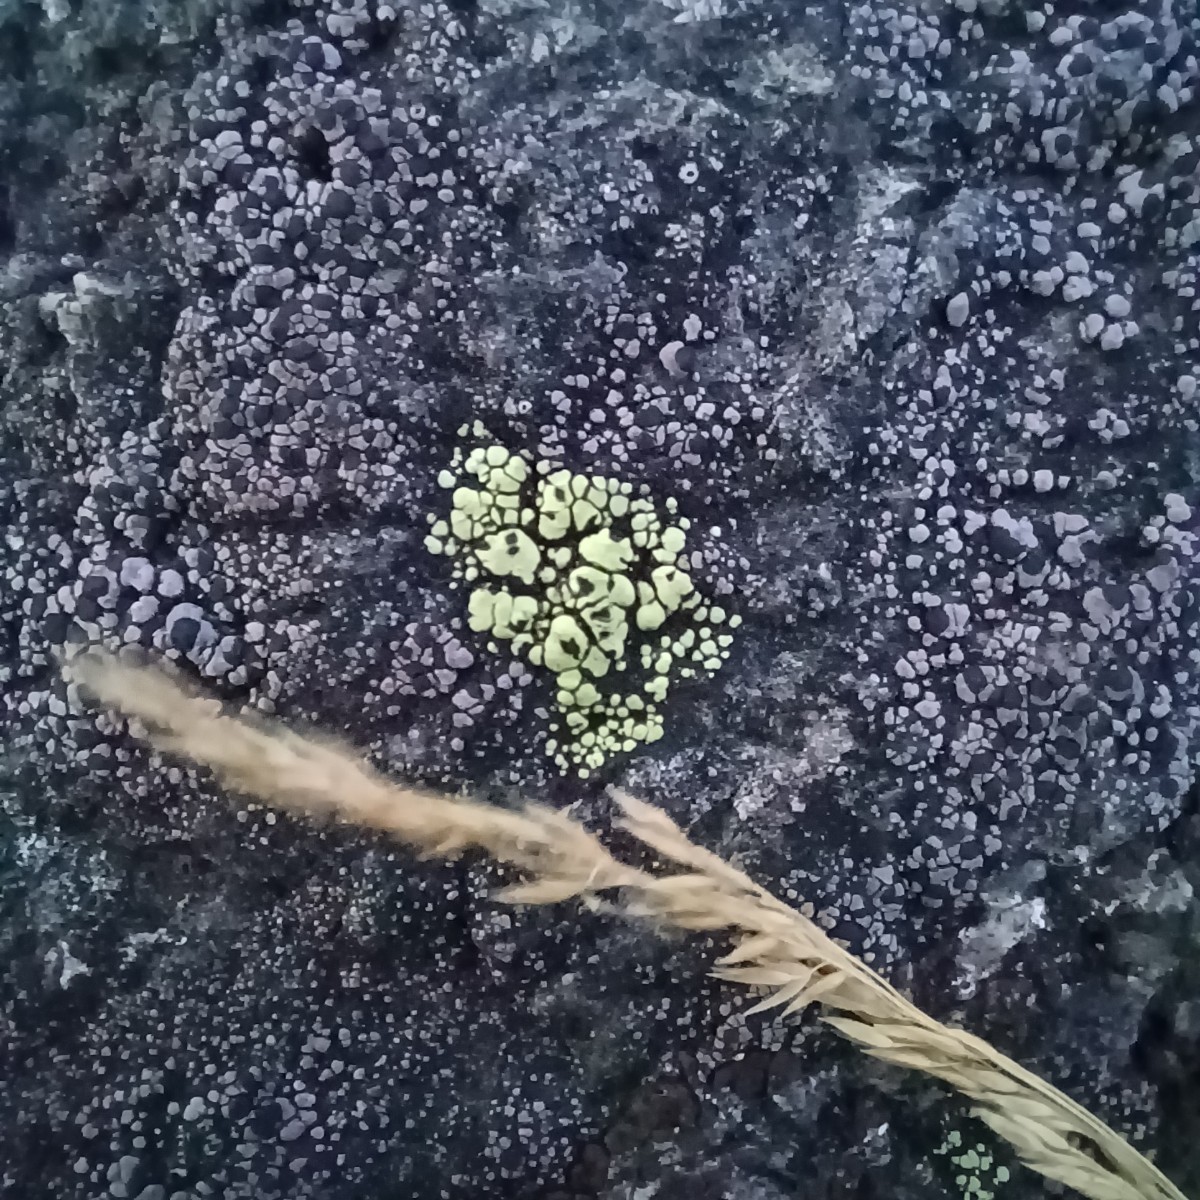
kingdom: Fungi
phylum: Ascomycota
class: Lecanoromycetes
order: Rhizocarpales
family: Rhizocarpaceae
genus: Rhizocarpon
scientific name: Rhizocarpon lecanorinum
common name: krave-landkortlav
